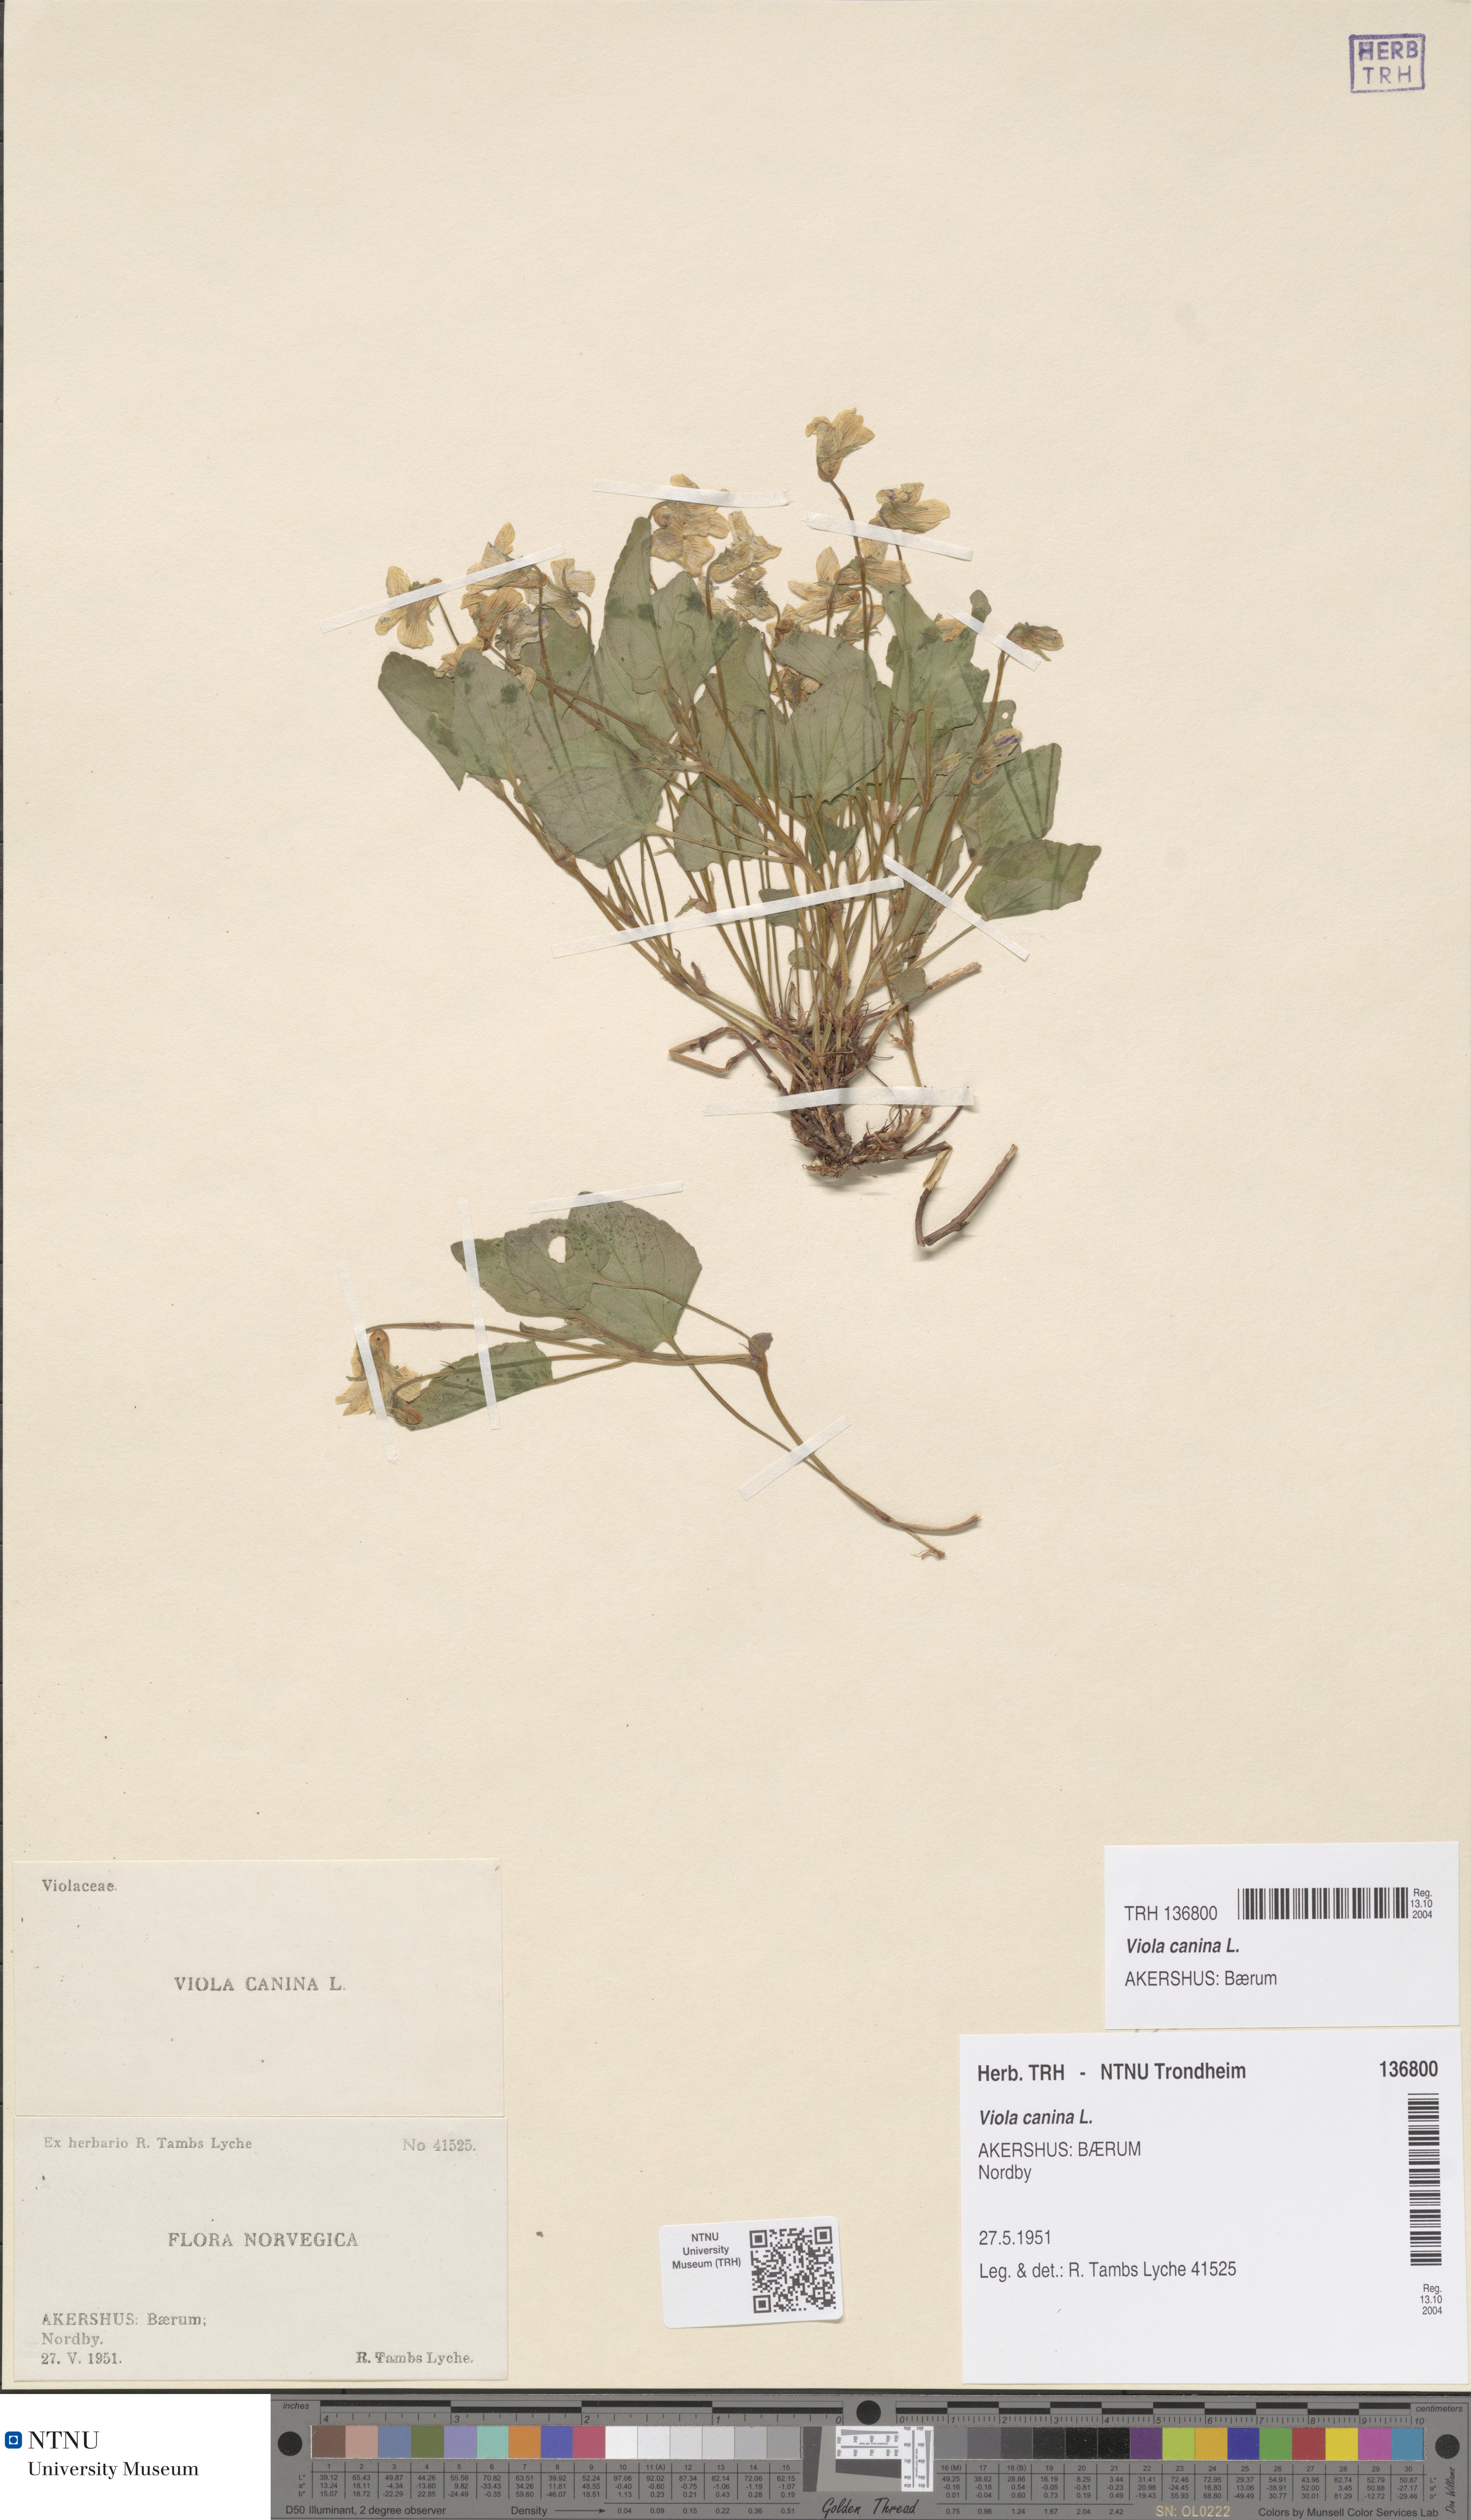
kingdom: Plantae
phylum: Tracheophyta
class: Magnoliopsida
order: Malpighiales
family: Violaceae
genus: Viola
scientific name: Viola canina
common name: Heath dog-violet
